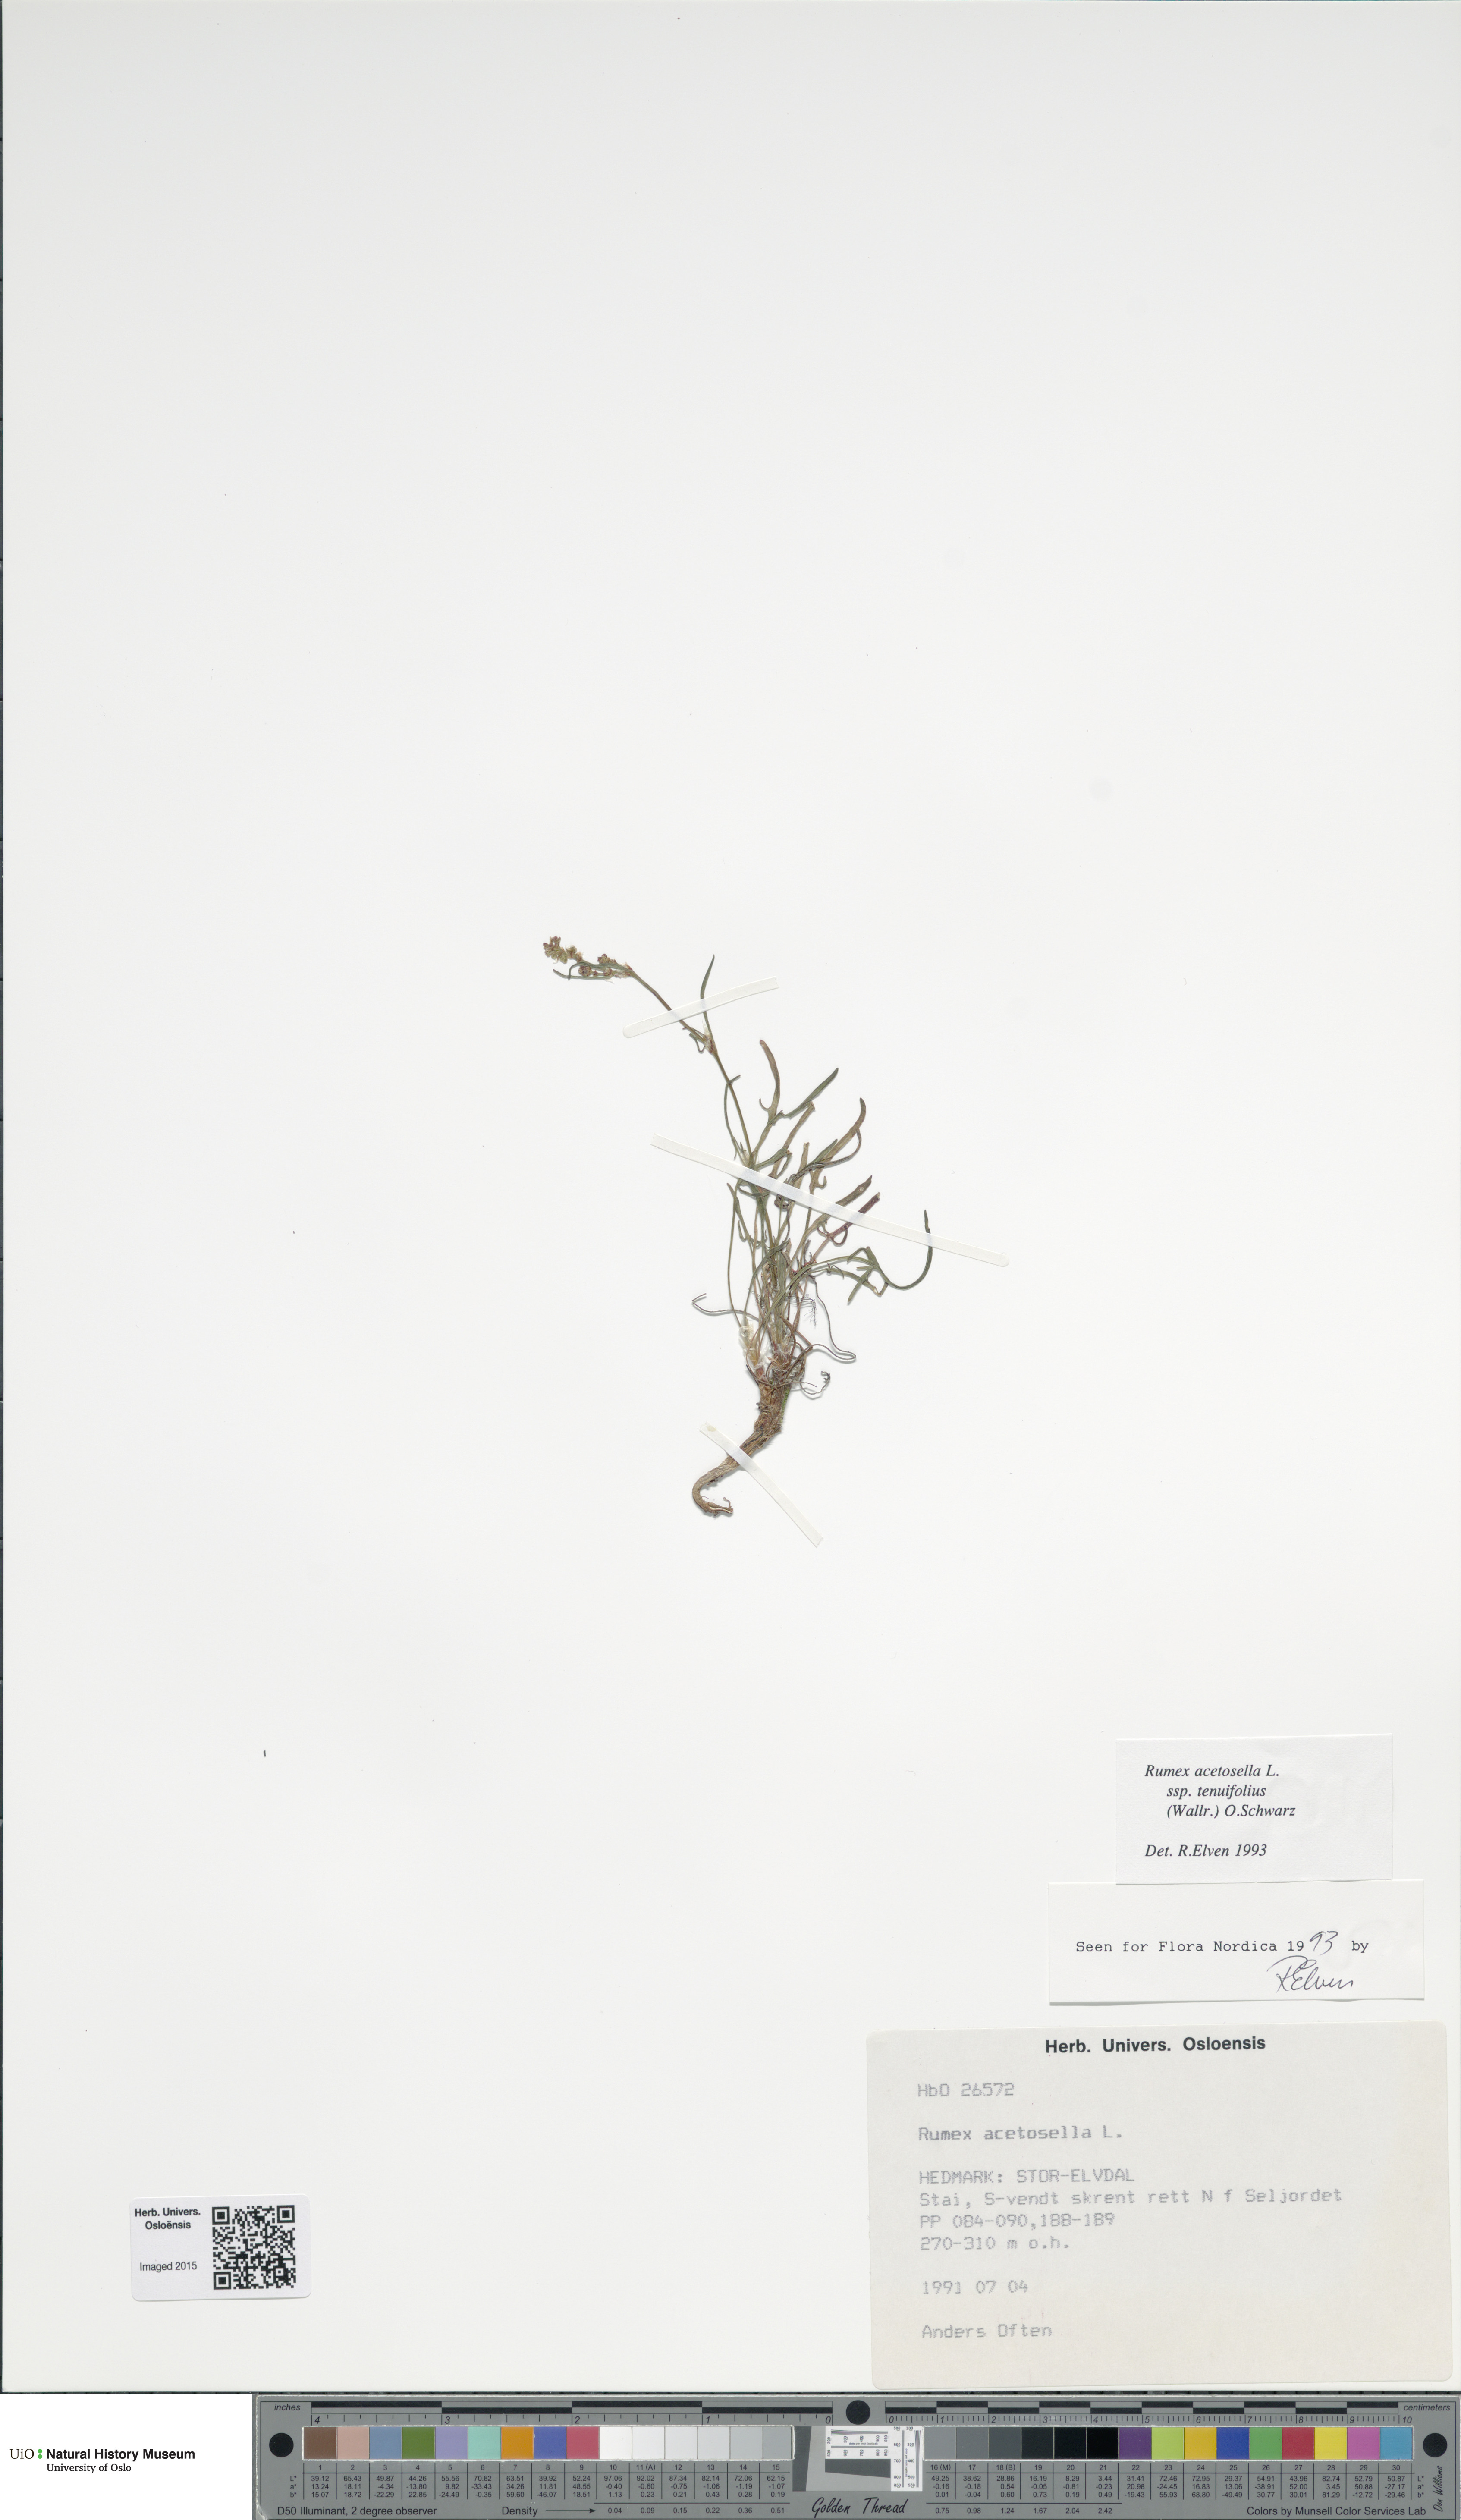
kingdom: Plantae
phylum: Tracheophyta
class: Magnoliopsida
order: Caryophyllales
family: Polygonaceae
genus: Rumex
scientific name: Rumex acetosella
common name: Common sheep sorrel
